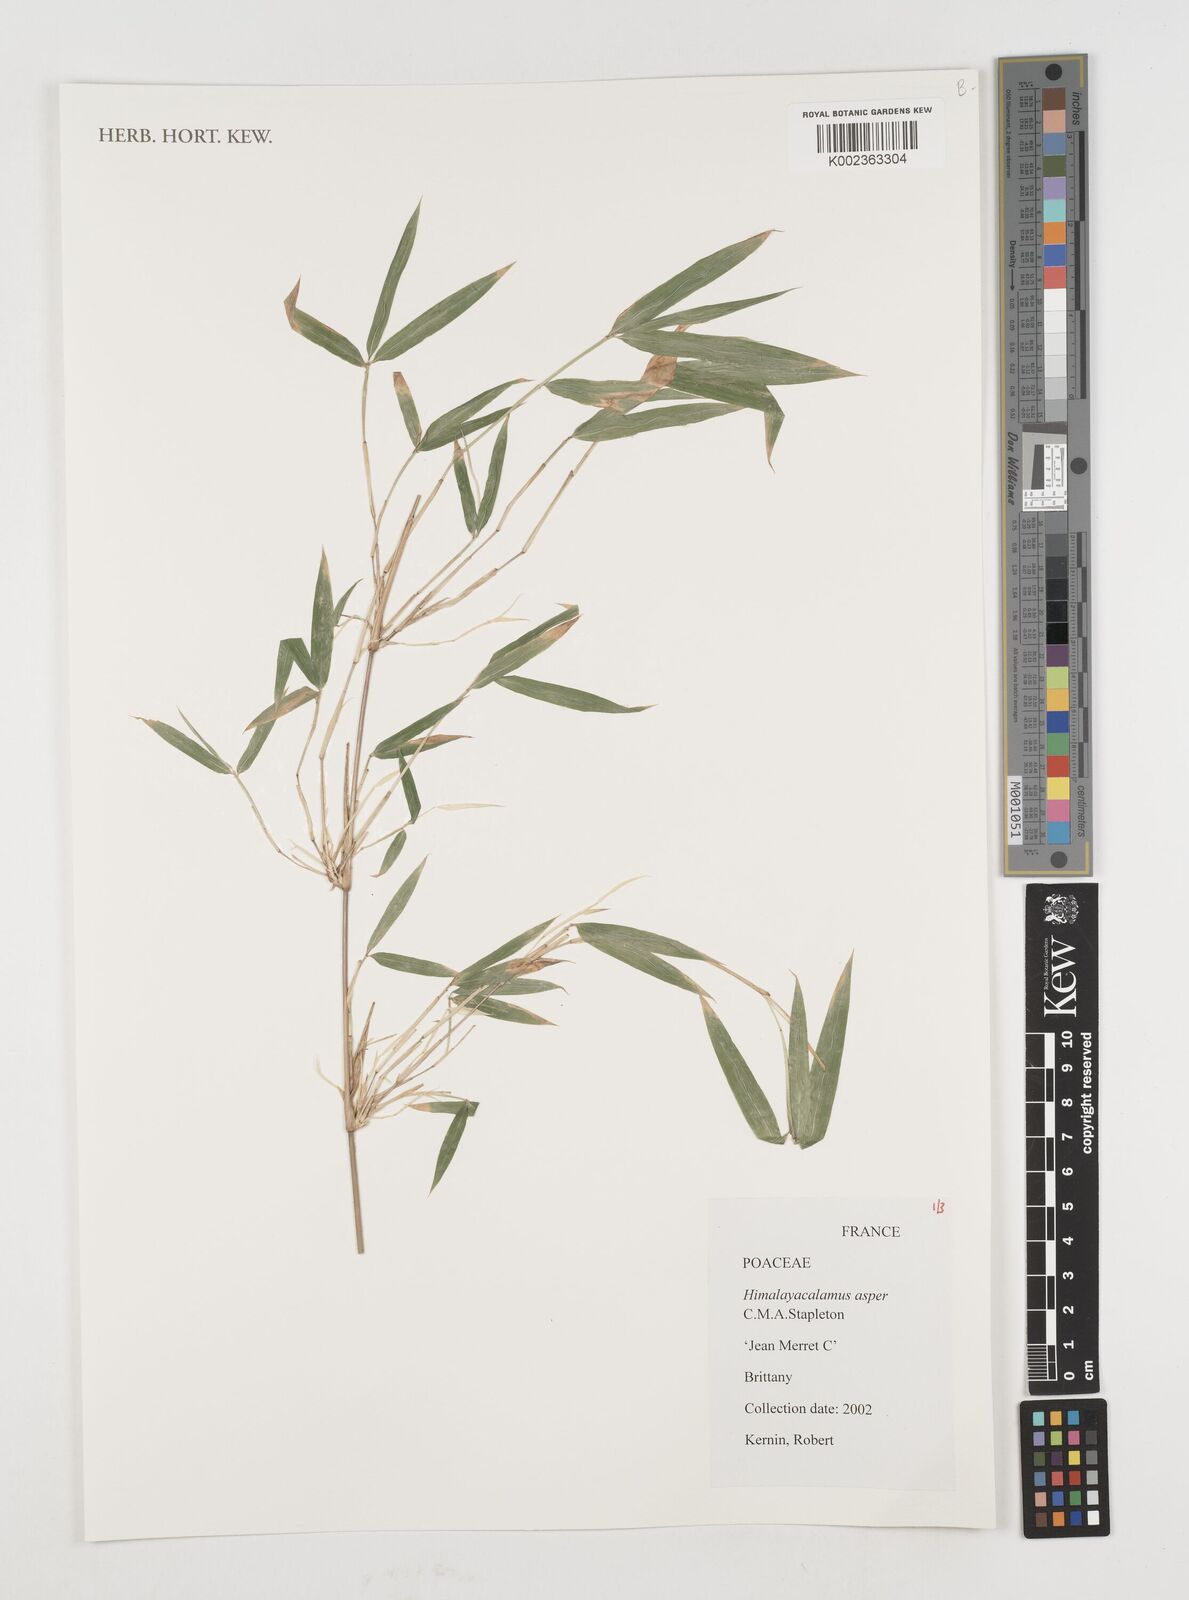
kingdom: Plantae
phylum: Tracheophyta
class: Liliopsida
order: Poales
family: Poaceae
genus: Himalayacalamus
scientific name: Himalayacalamus asper
